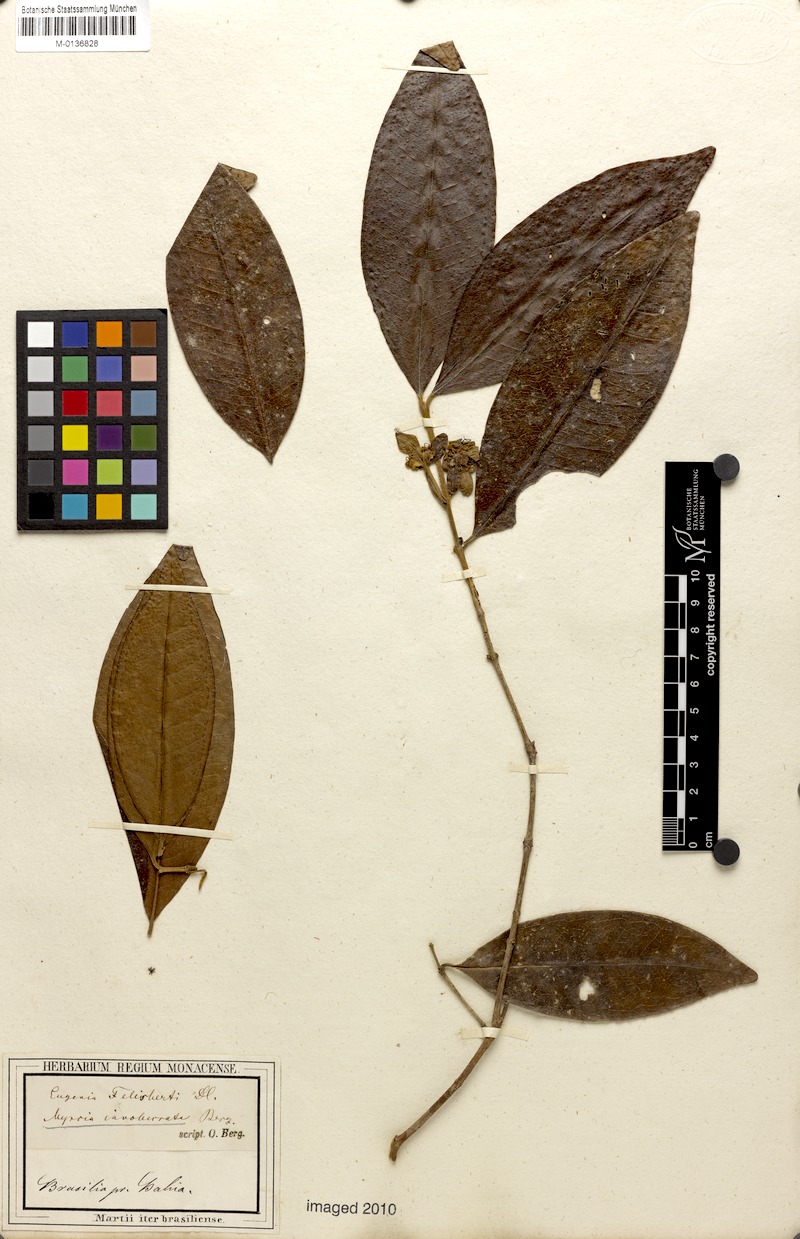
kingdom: Plantae
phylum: Tracheophyta
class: Magnoliopsida
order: Myrtales
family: Myrtaceae
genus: Myrcia
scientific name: Myrcia felisbertii
